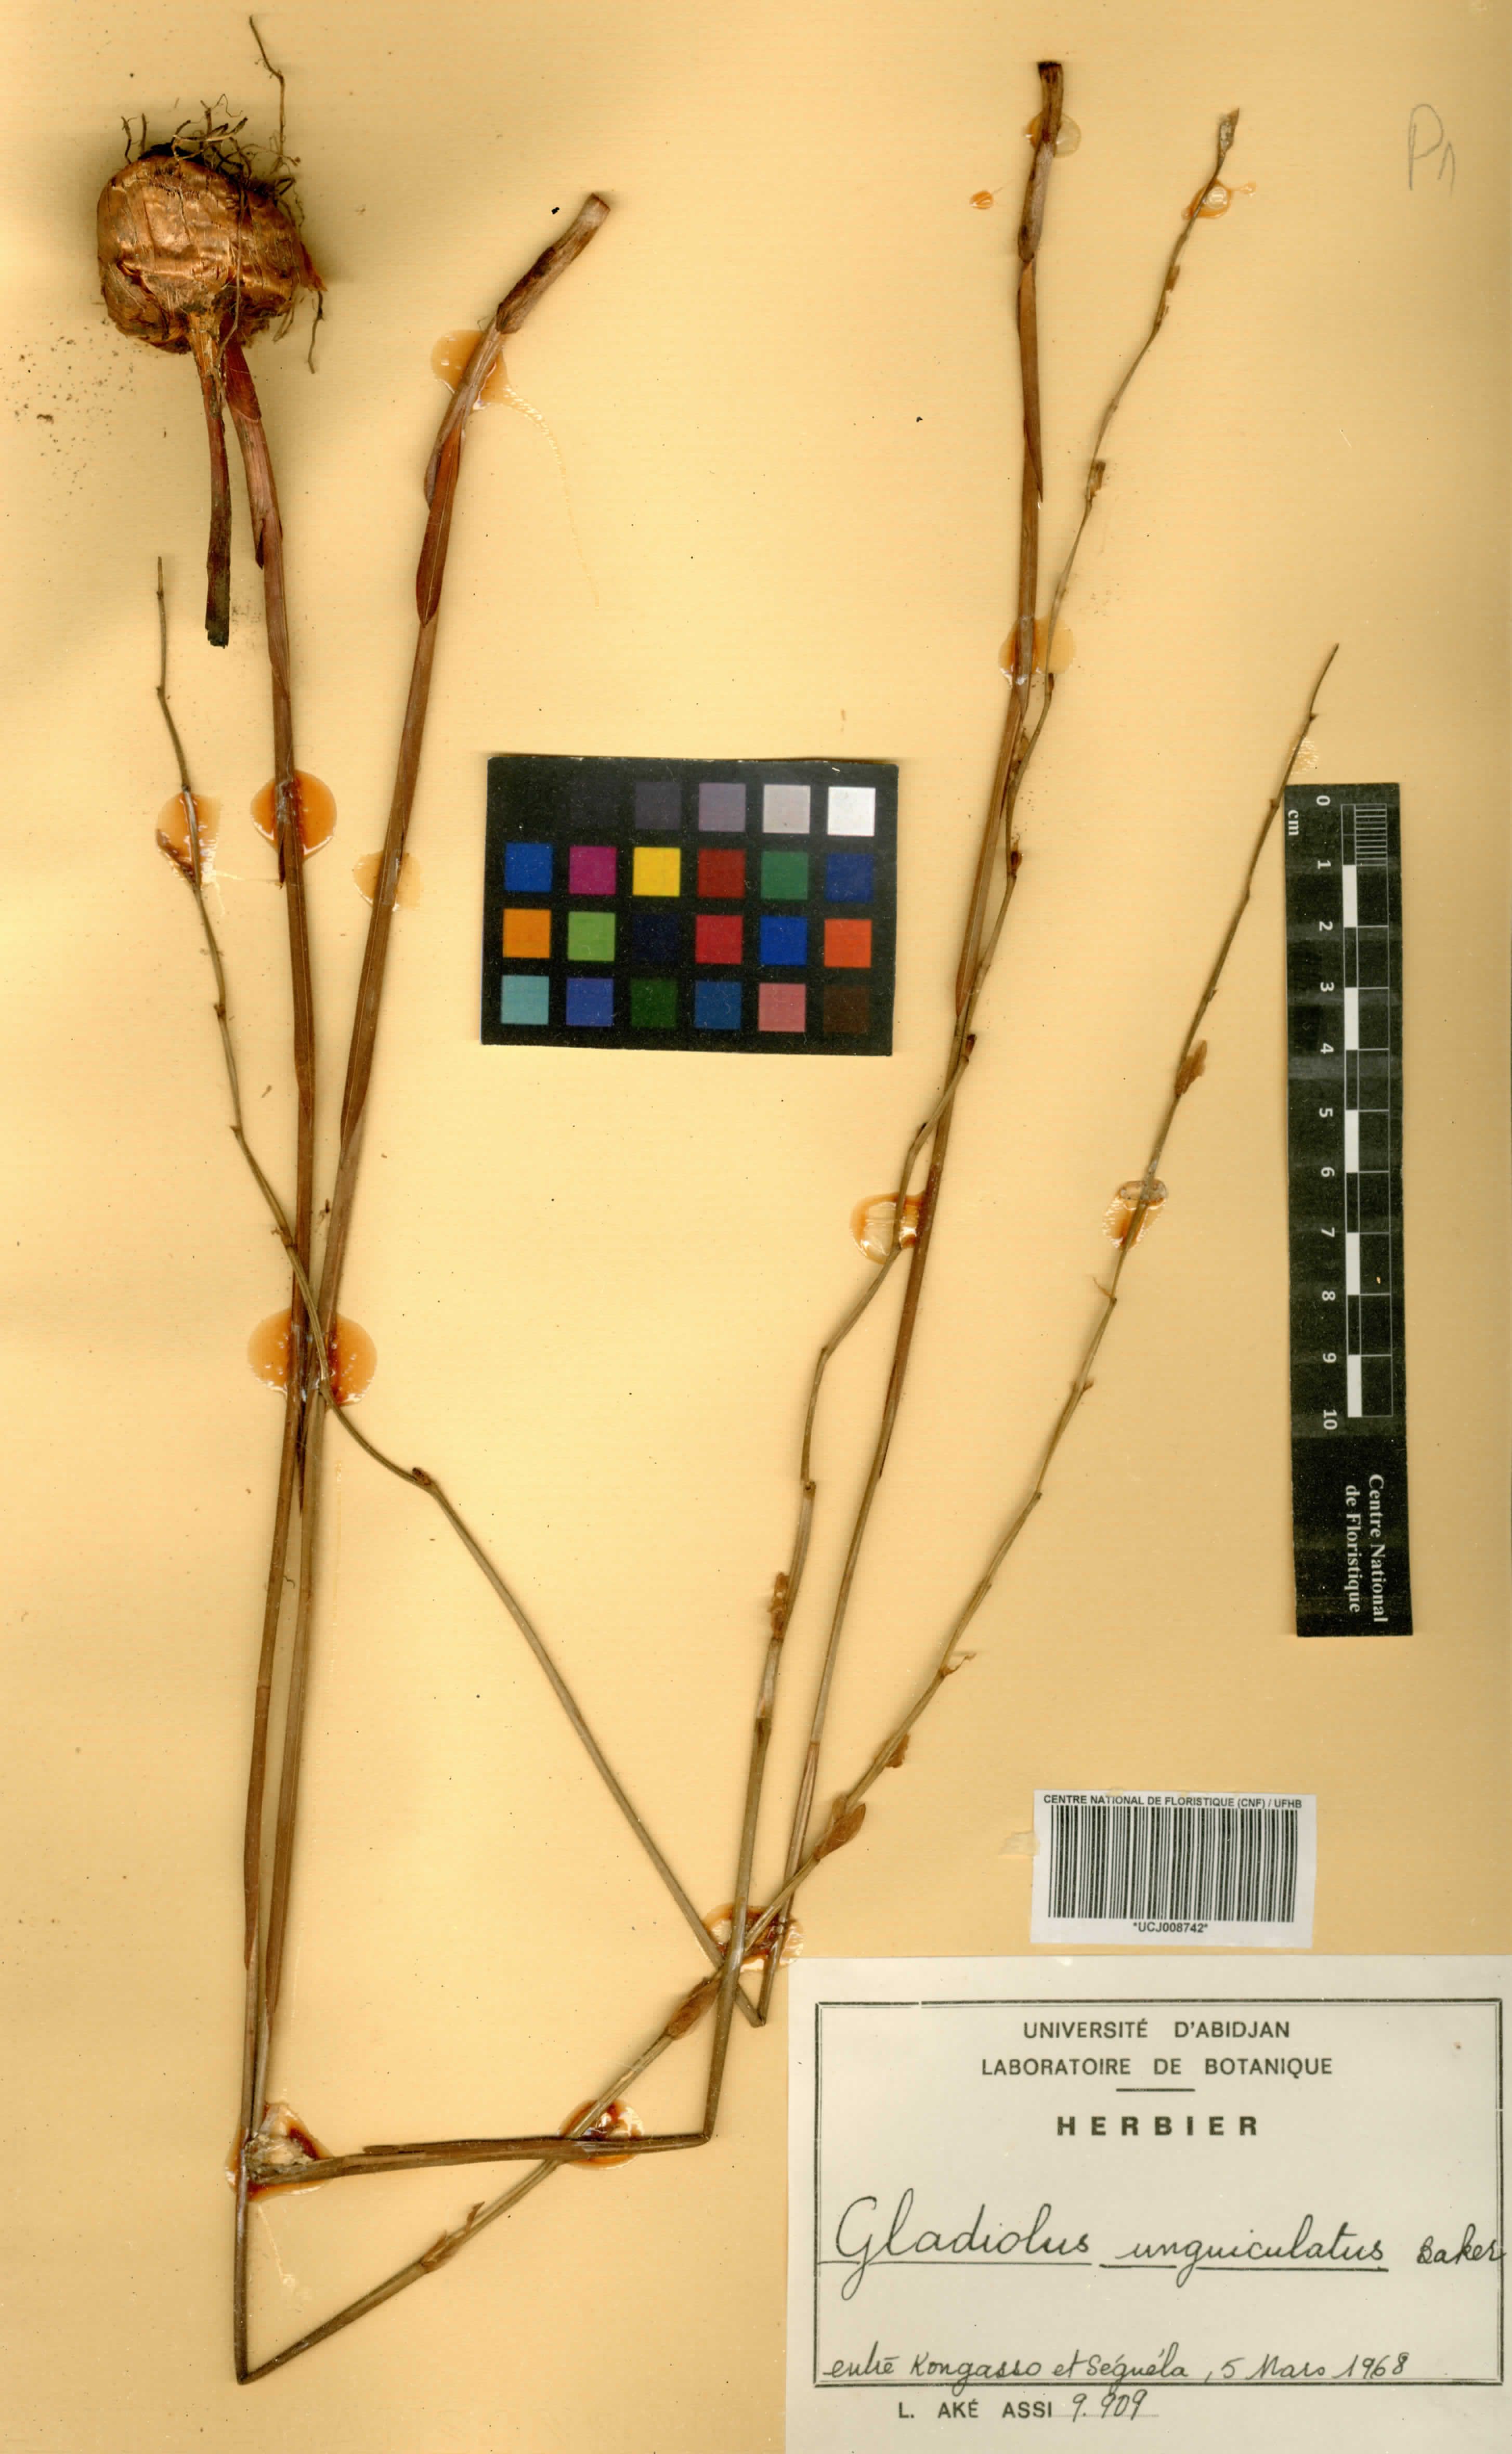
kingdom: Plantae
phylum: Tracheophyta
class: Liliopsida
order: Asparagales
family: Iridaceae
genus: Gladiolus
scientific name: Gladiolus unguiculatus
